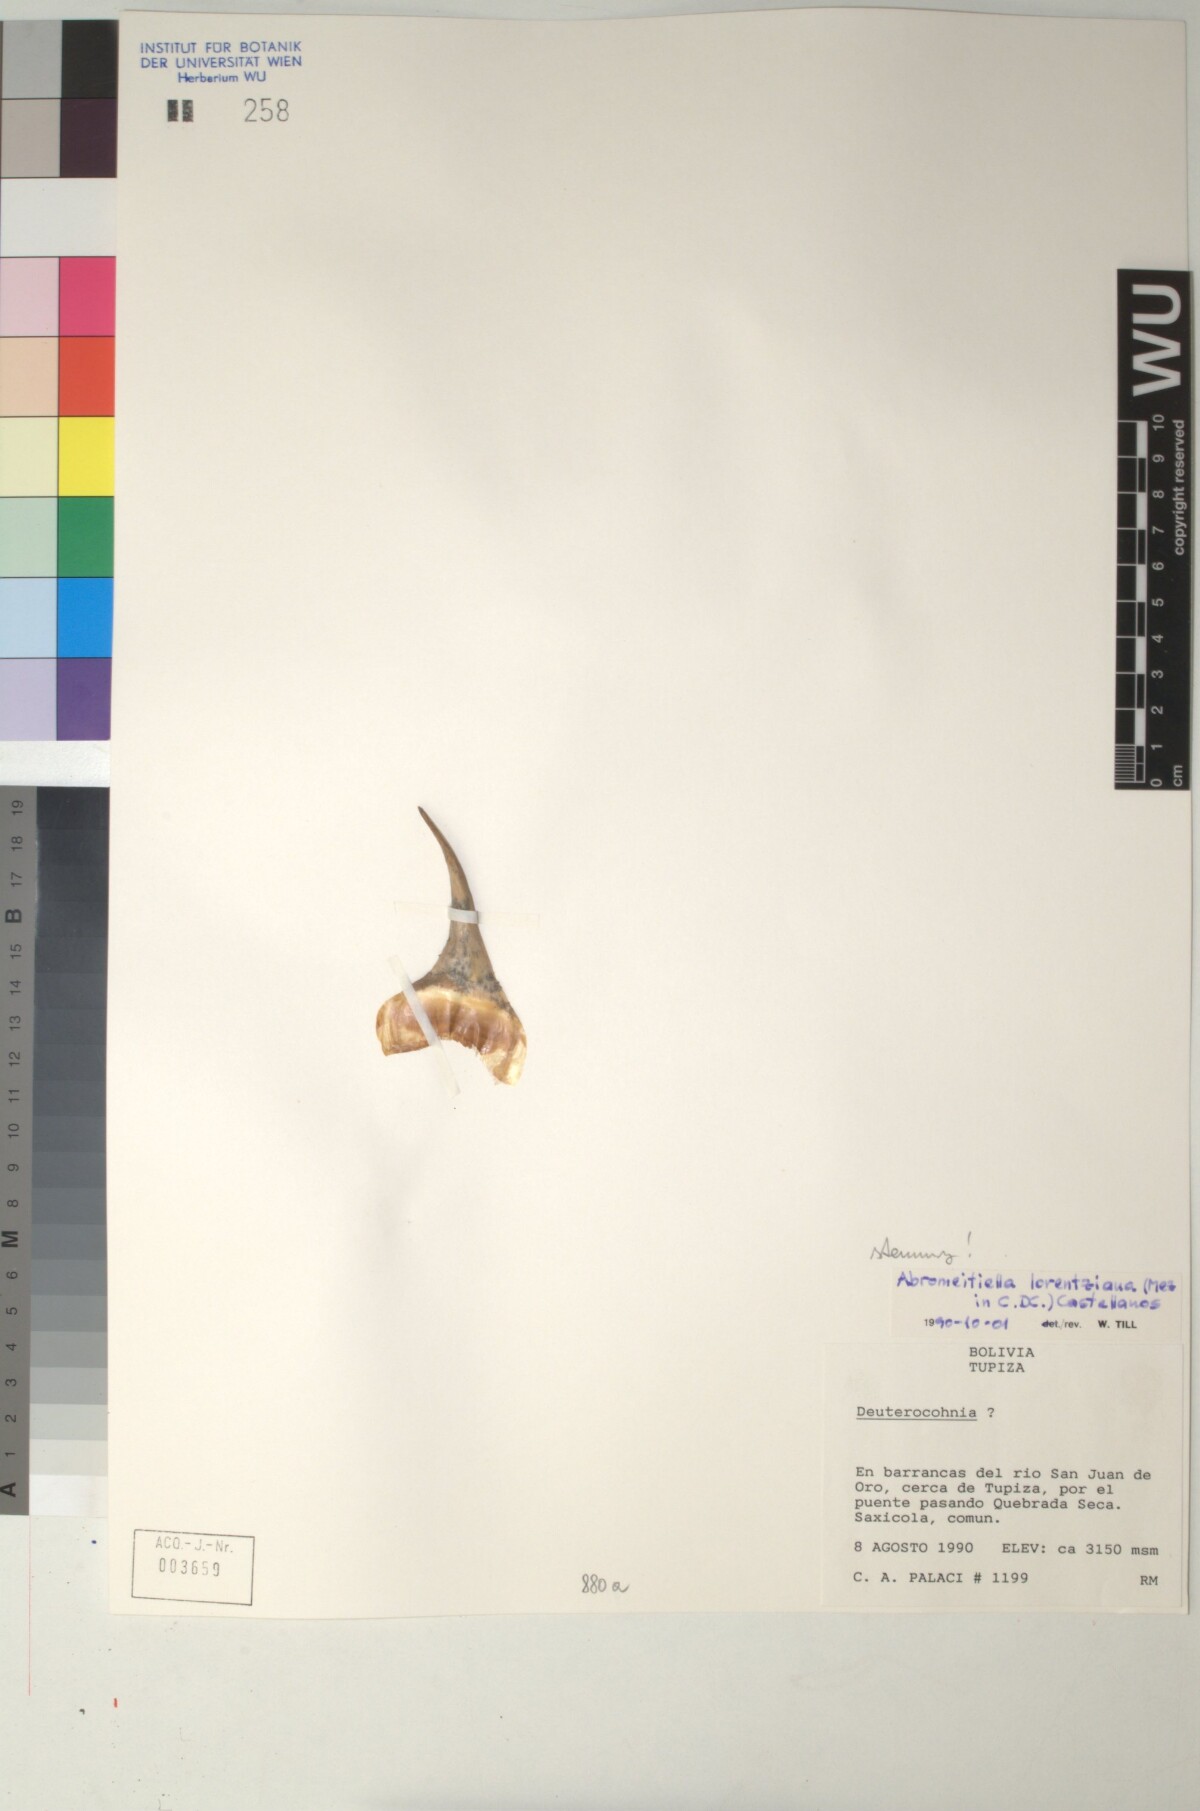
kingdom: Plantae
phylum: Tracheophyta
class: Liliopsida
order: Poales
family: Bromeliaceae
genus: Deuterocohnia
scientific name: Deuterocohnia brevifolia
